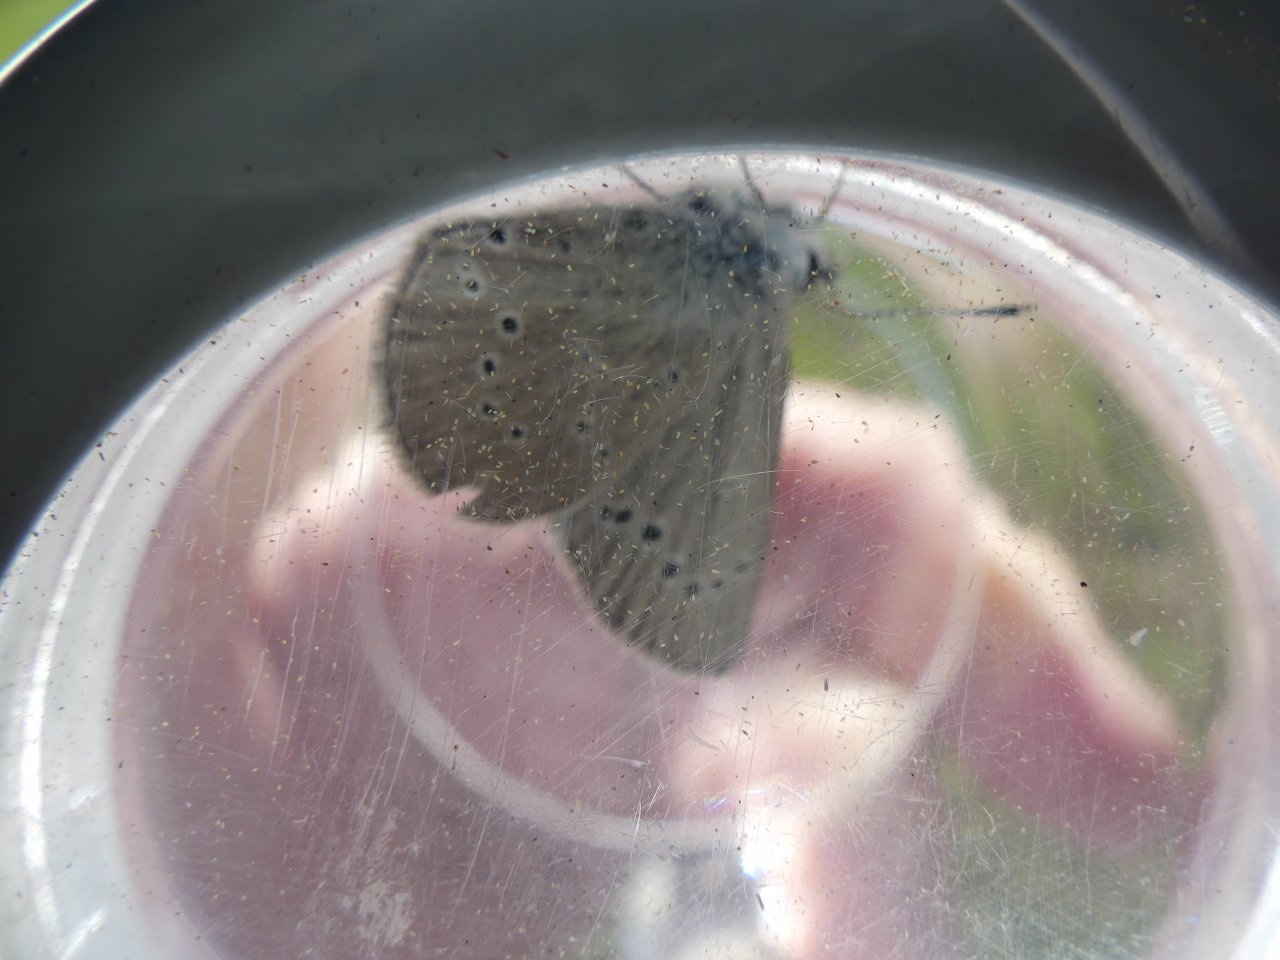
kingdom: Animalia
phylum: Arthropoda
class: Insecta
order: Lepidoptera
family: Lycaenidae
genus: Glaucopsyche
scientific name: Glaucopsyche lygdamus
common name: Silvery Blue
